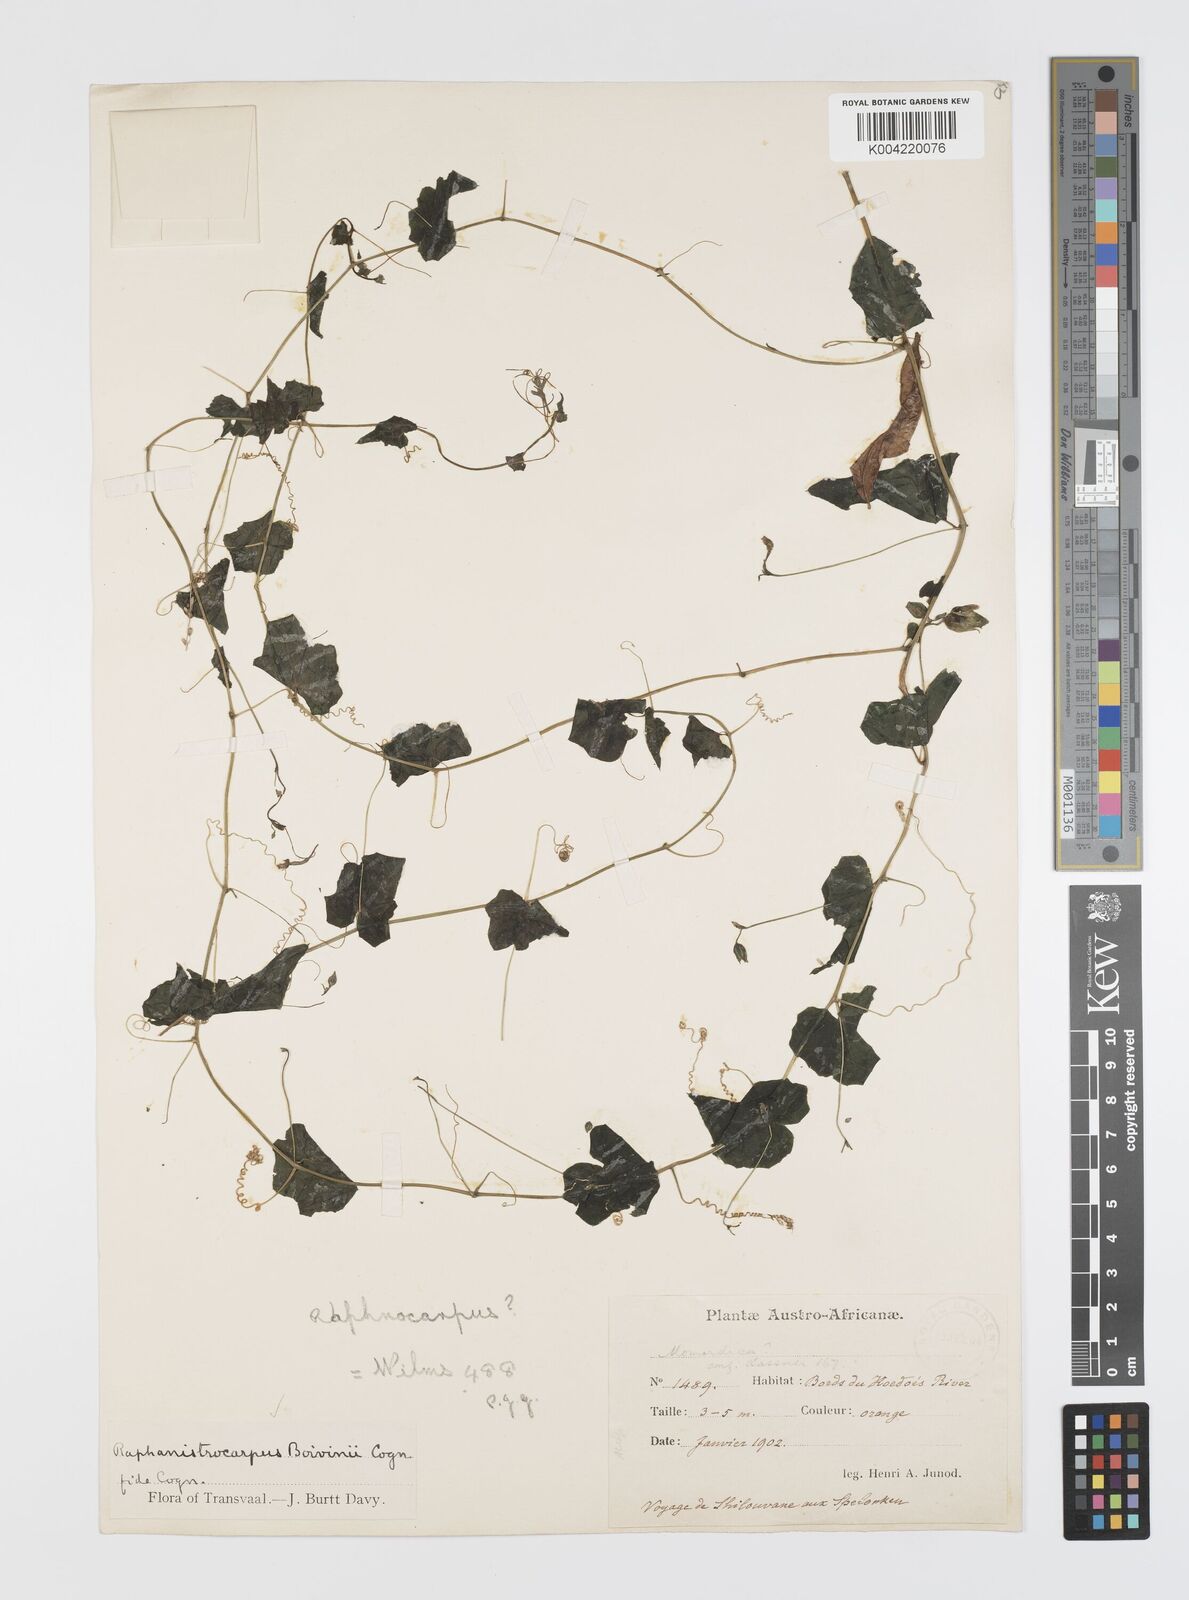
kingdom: Plantae
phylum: Tracheophyta
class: Magnoliopsida
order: Cucurbitales
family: Cucurbitaceae
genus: Momordica
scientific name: Momordica boivinii
